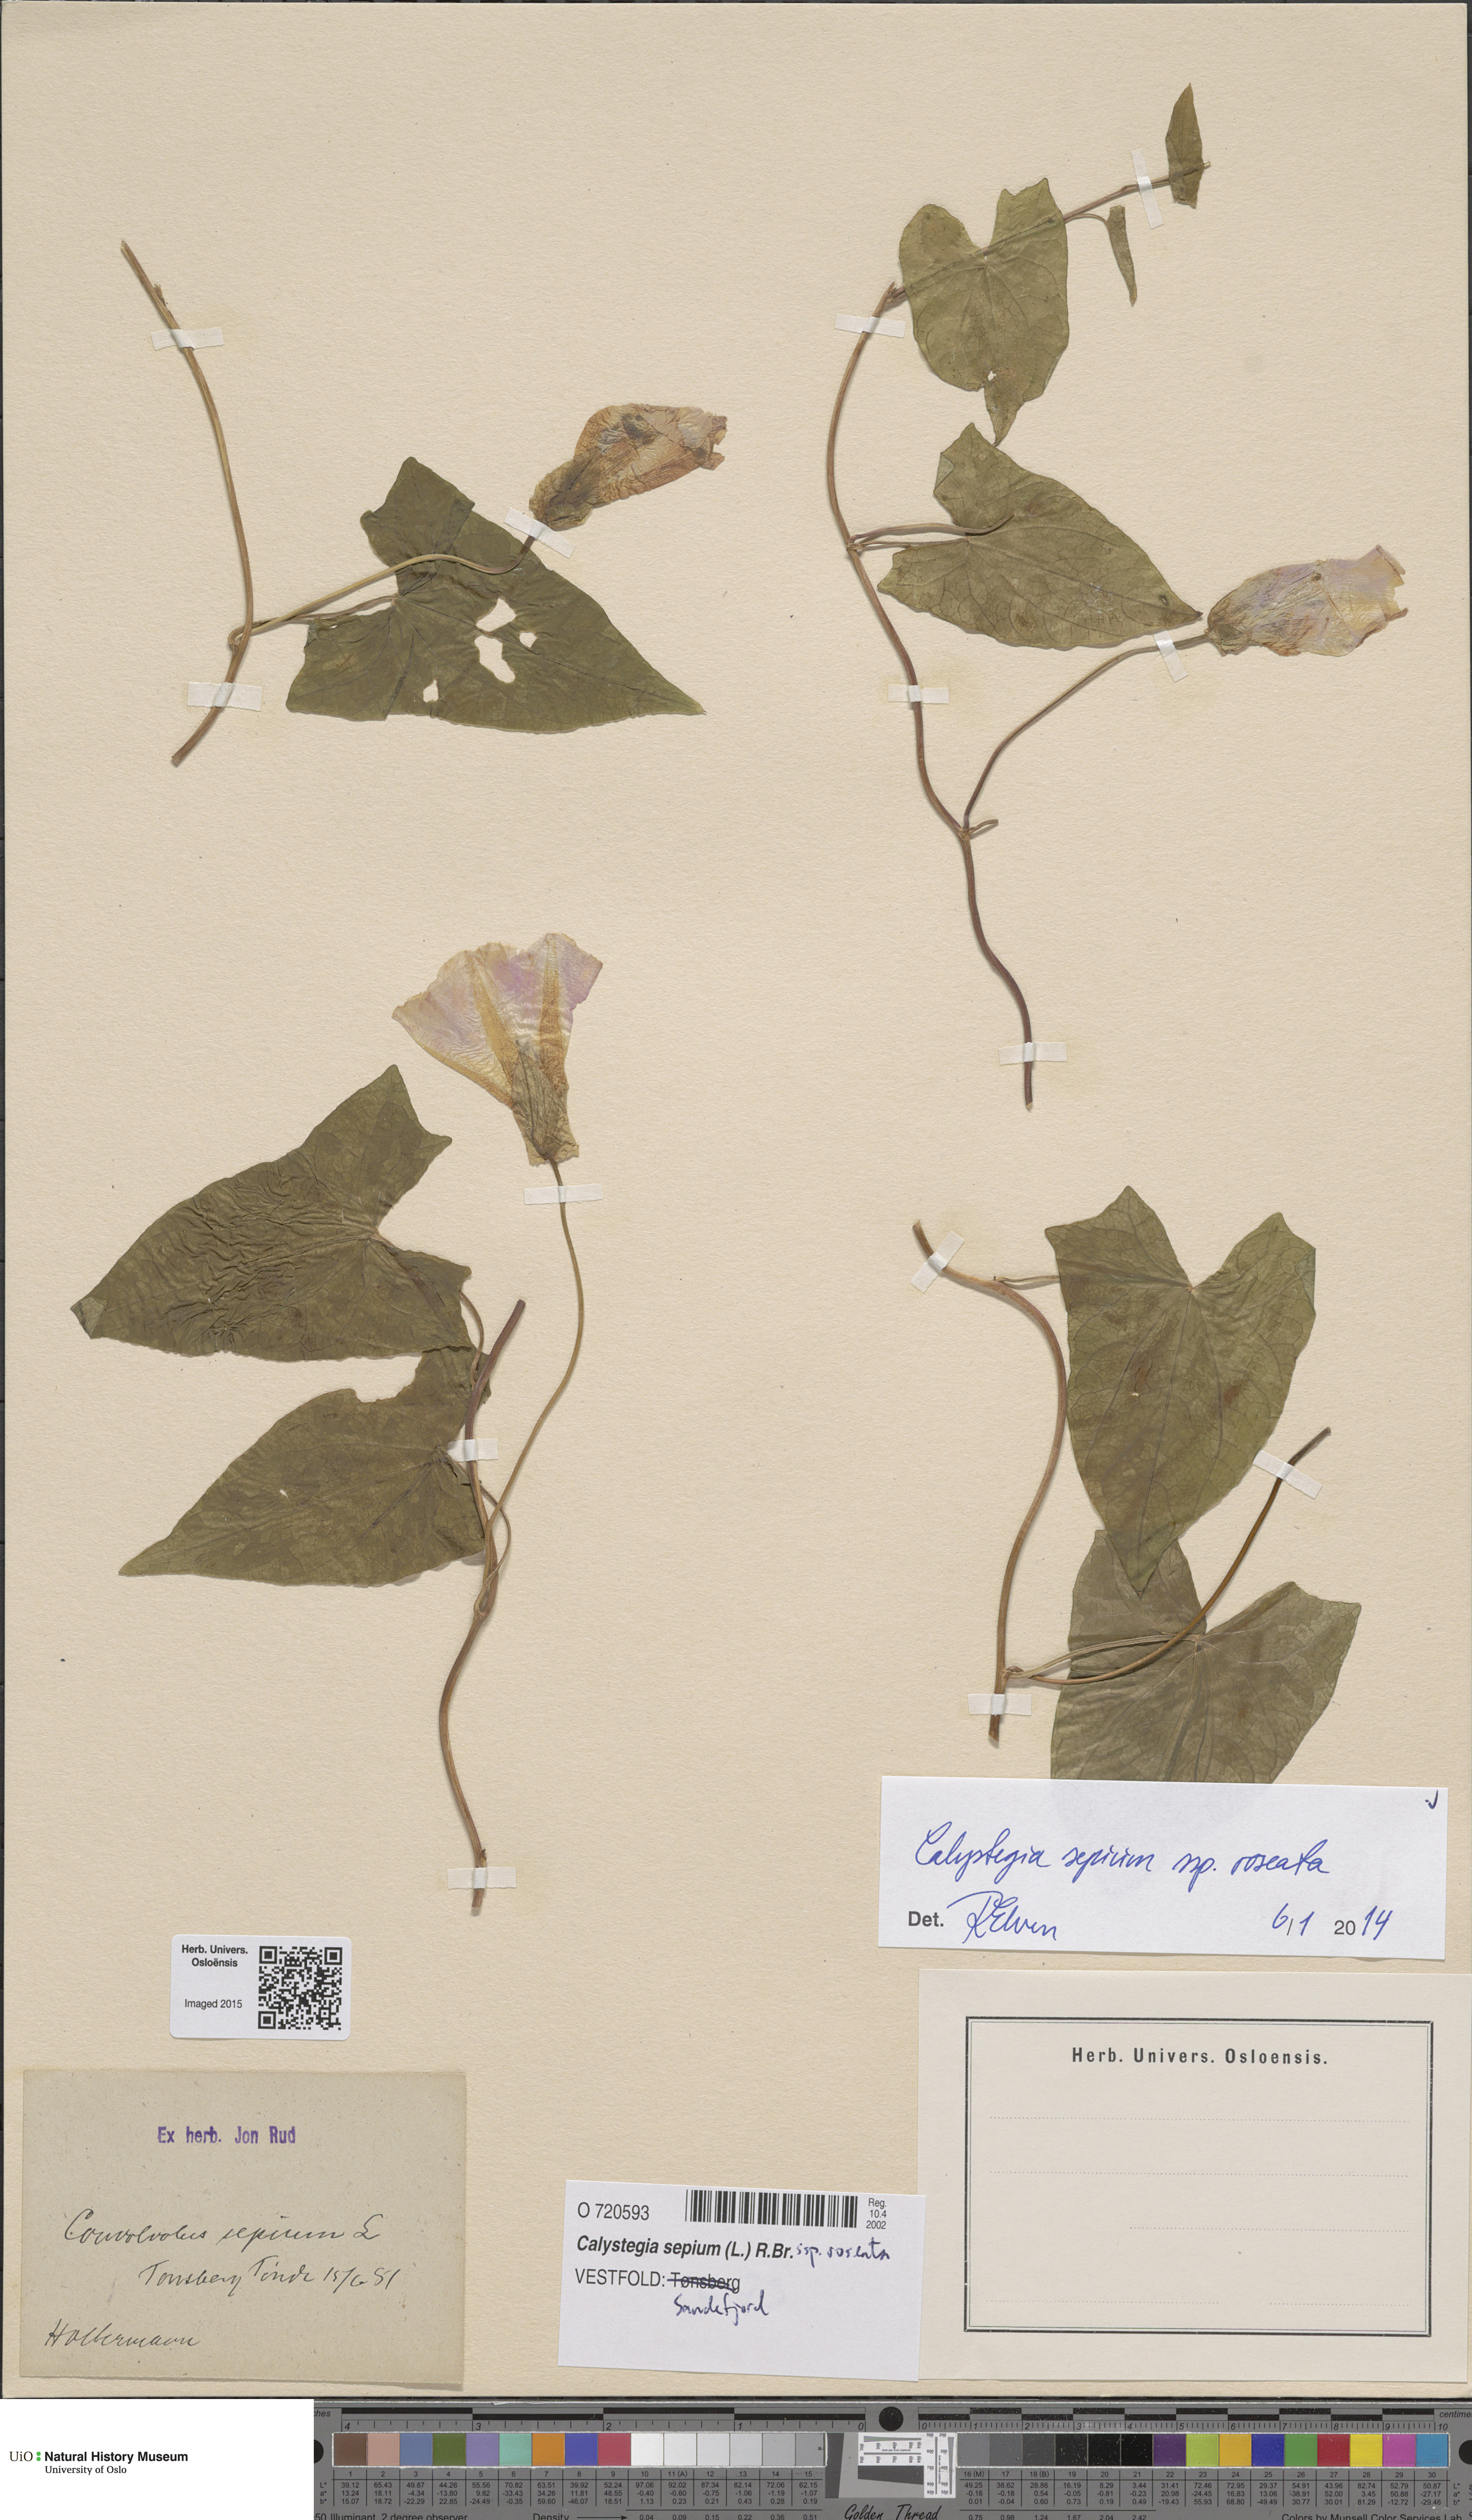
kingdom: Plantae
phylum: Tracheophyta
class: Magnoliopsida
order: Solanales
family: Convolvulaceae
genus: Calystegia
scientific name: Calystegia sepium
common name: Hedge bindweed
